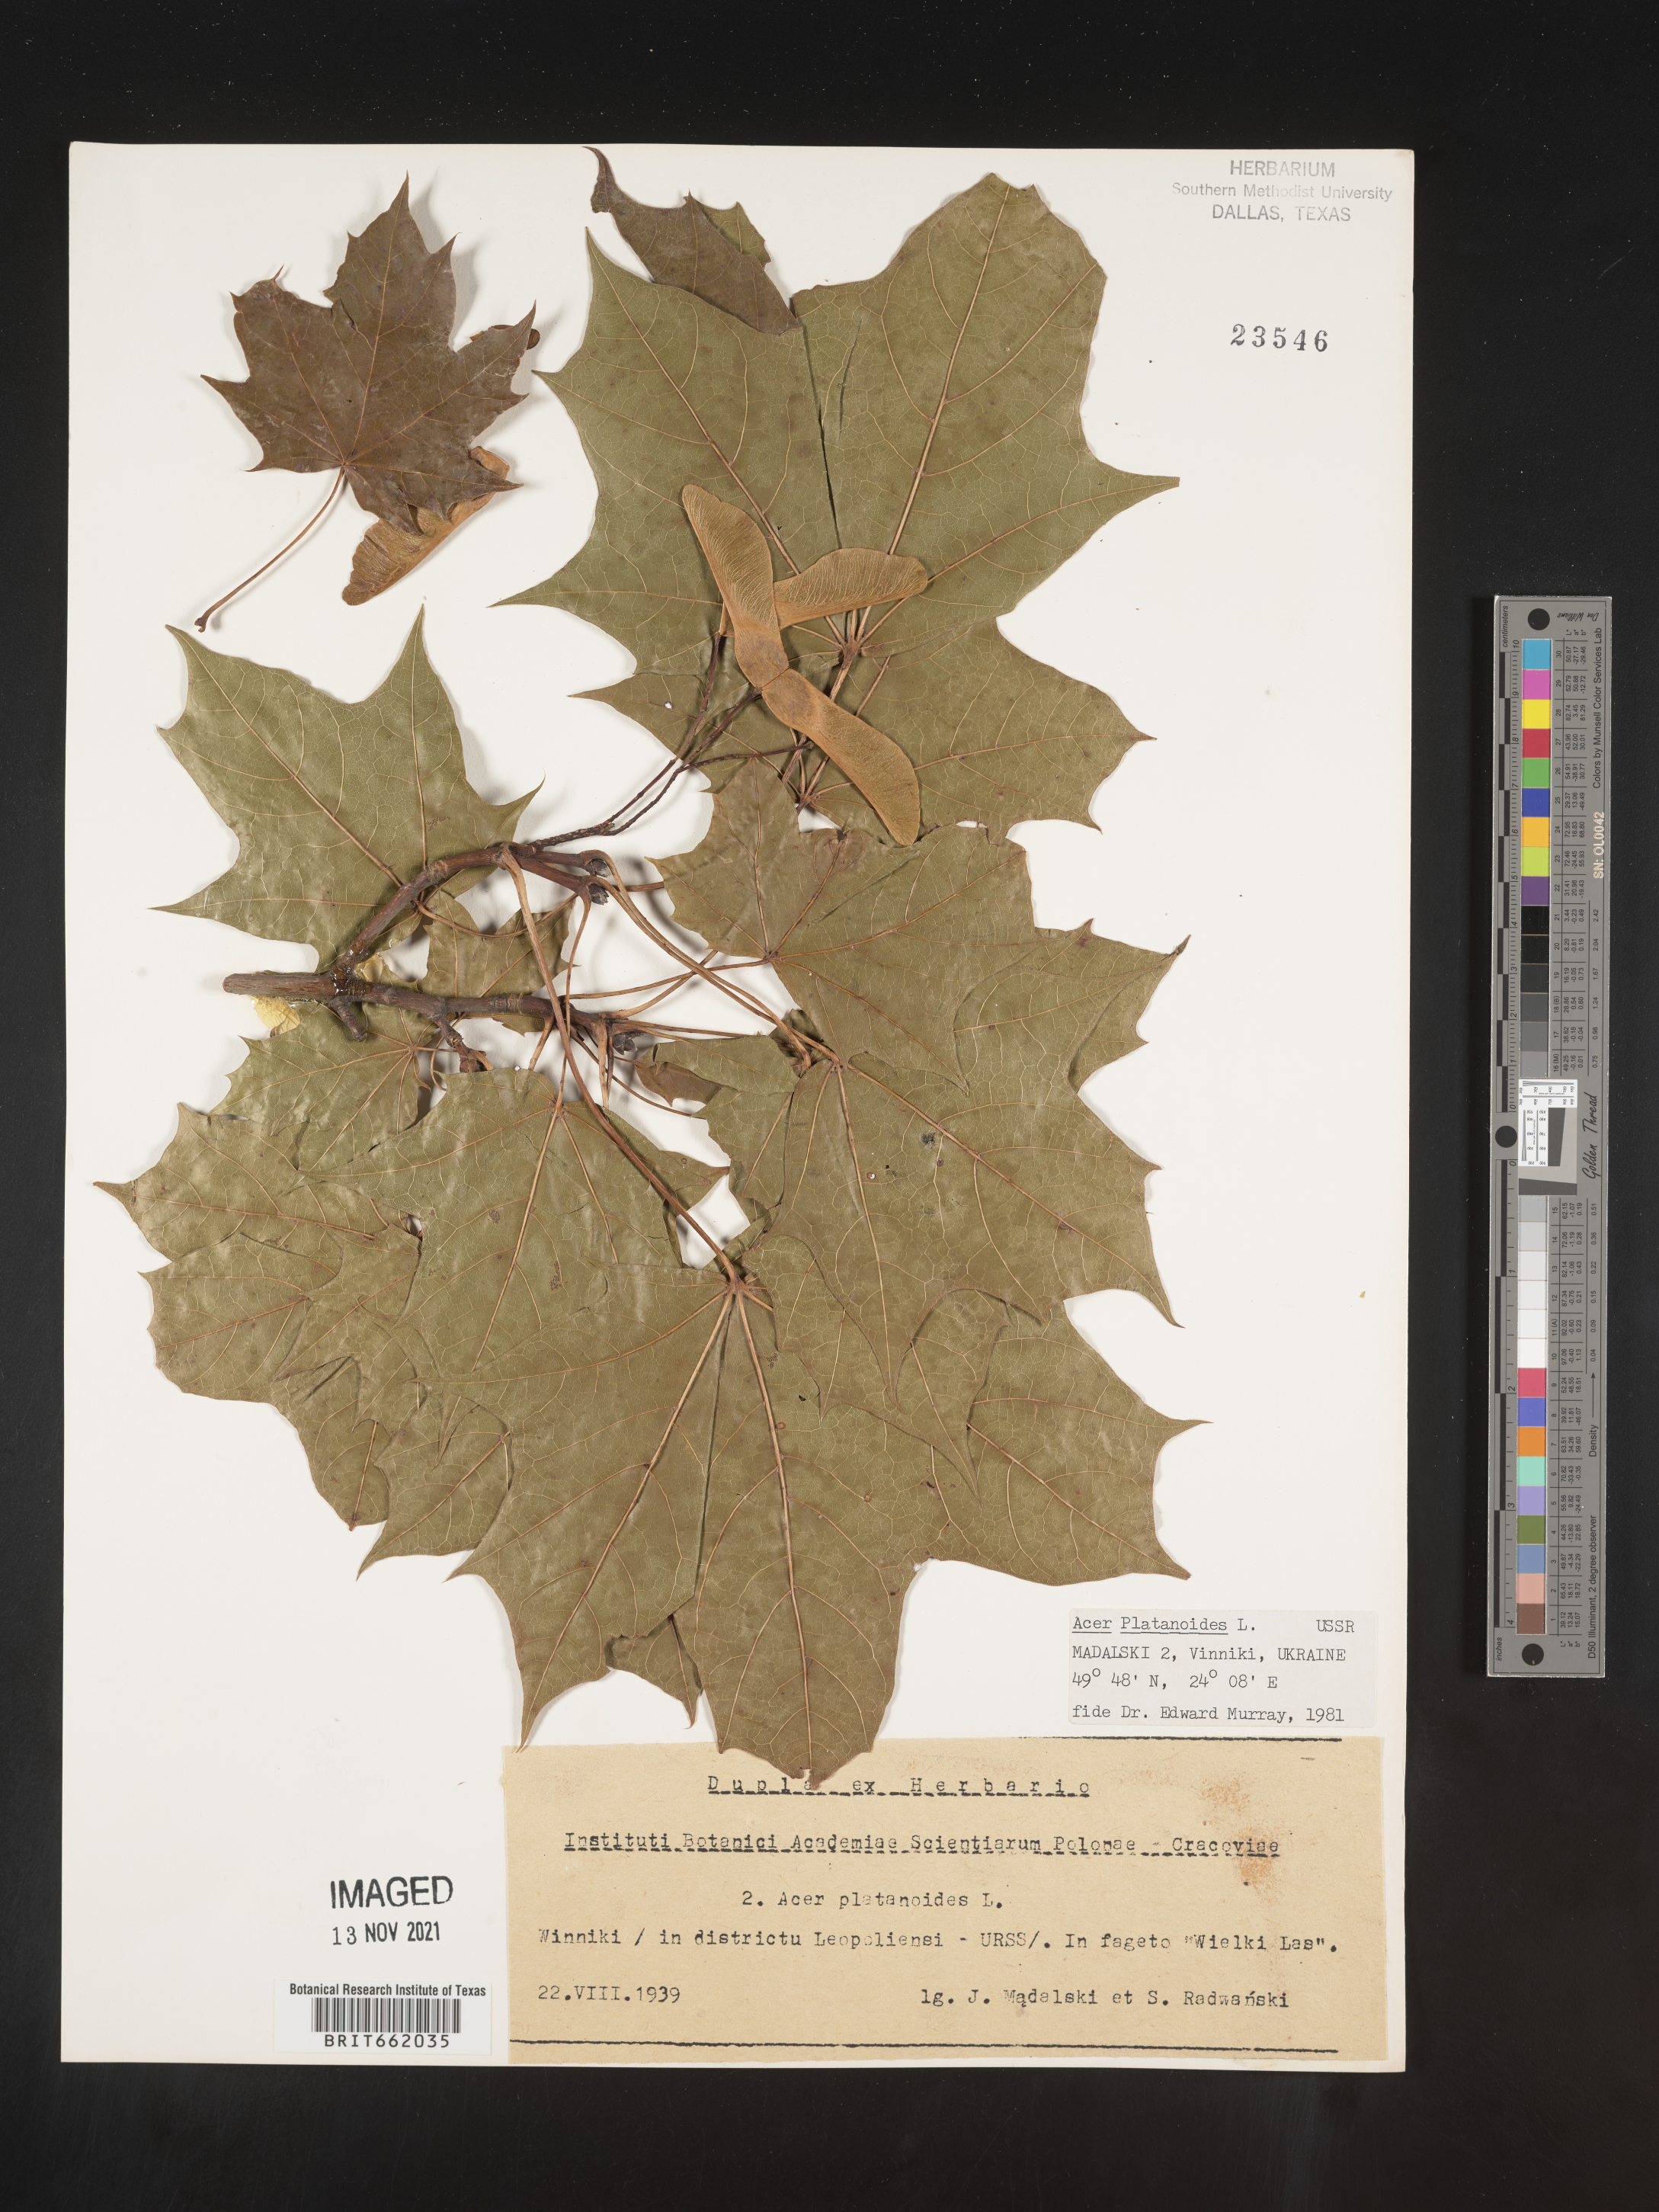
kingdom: Plantae
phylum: Tracheophyta
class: Magnoliopsida
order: Sapindales
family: Sapindaceae
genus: Acer
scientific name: Acer
